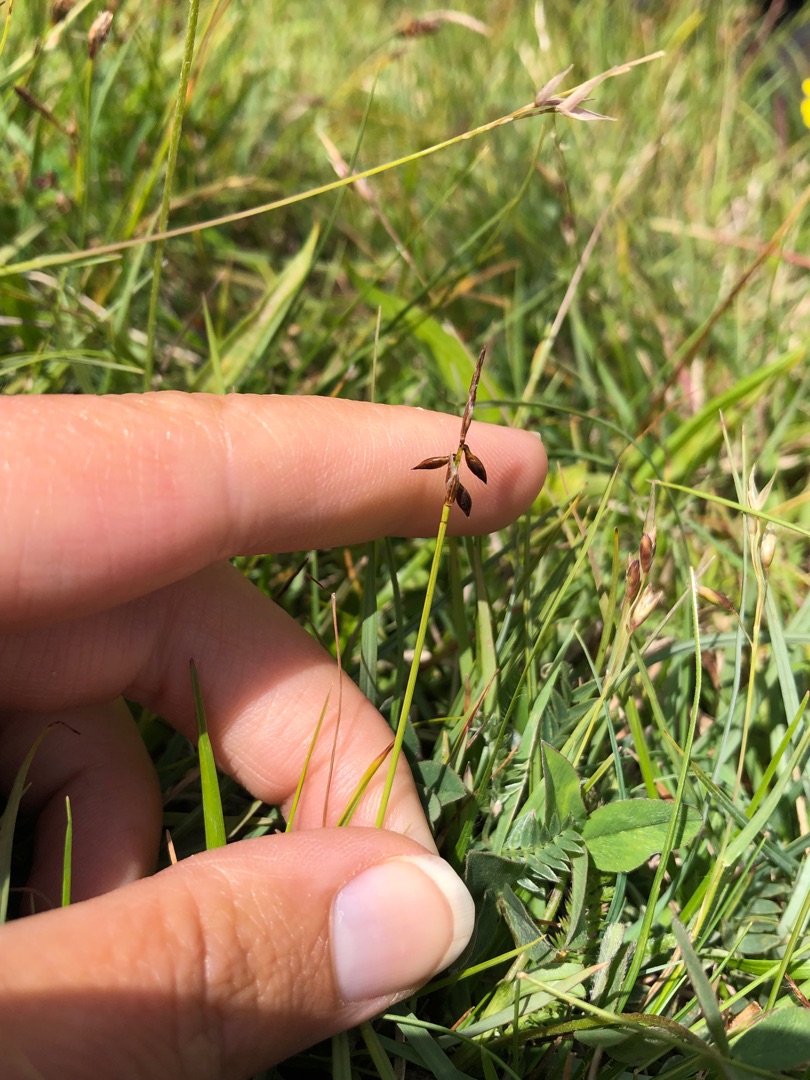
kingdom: Plantae
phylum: Tracheophyta
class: Liliopsida
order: Poales
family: Cyperaceae
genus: Carex
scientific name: Carex pulicaris
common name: Loppe-star
